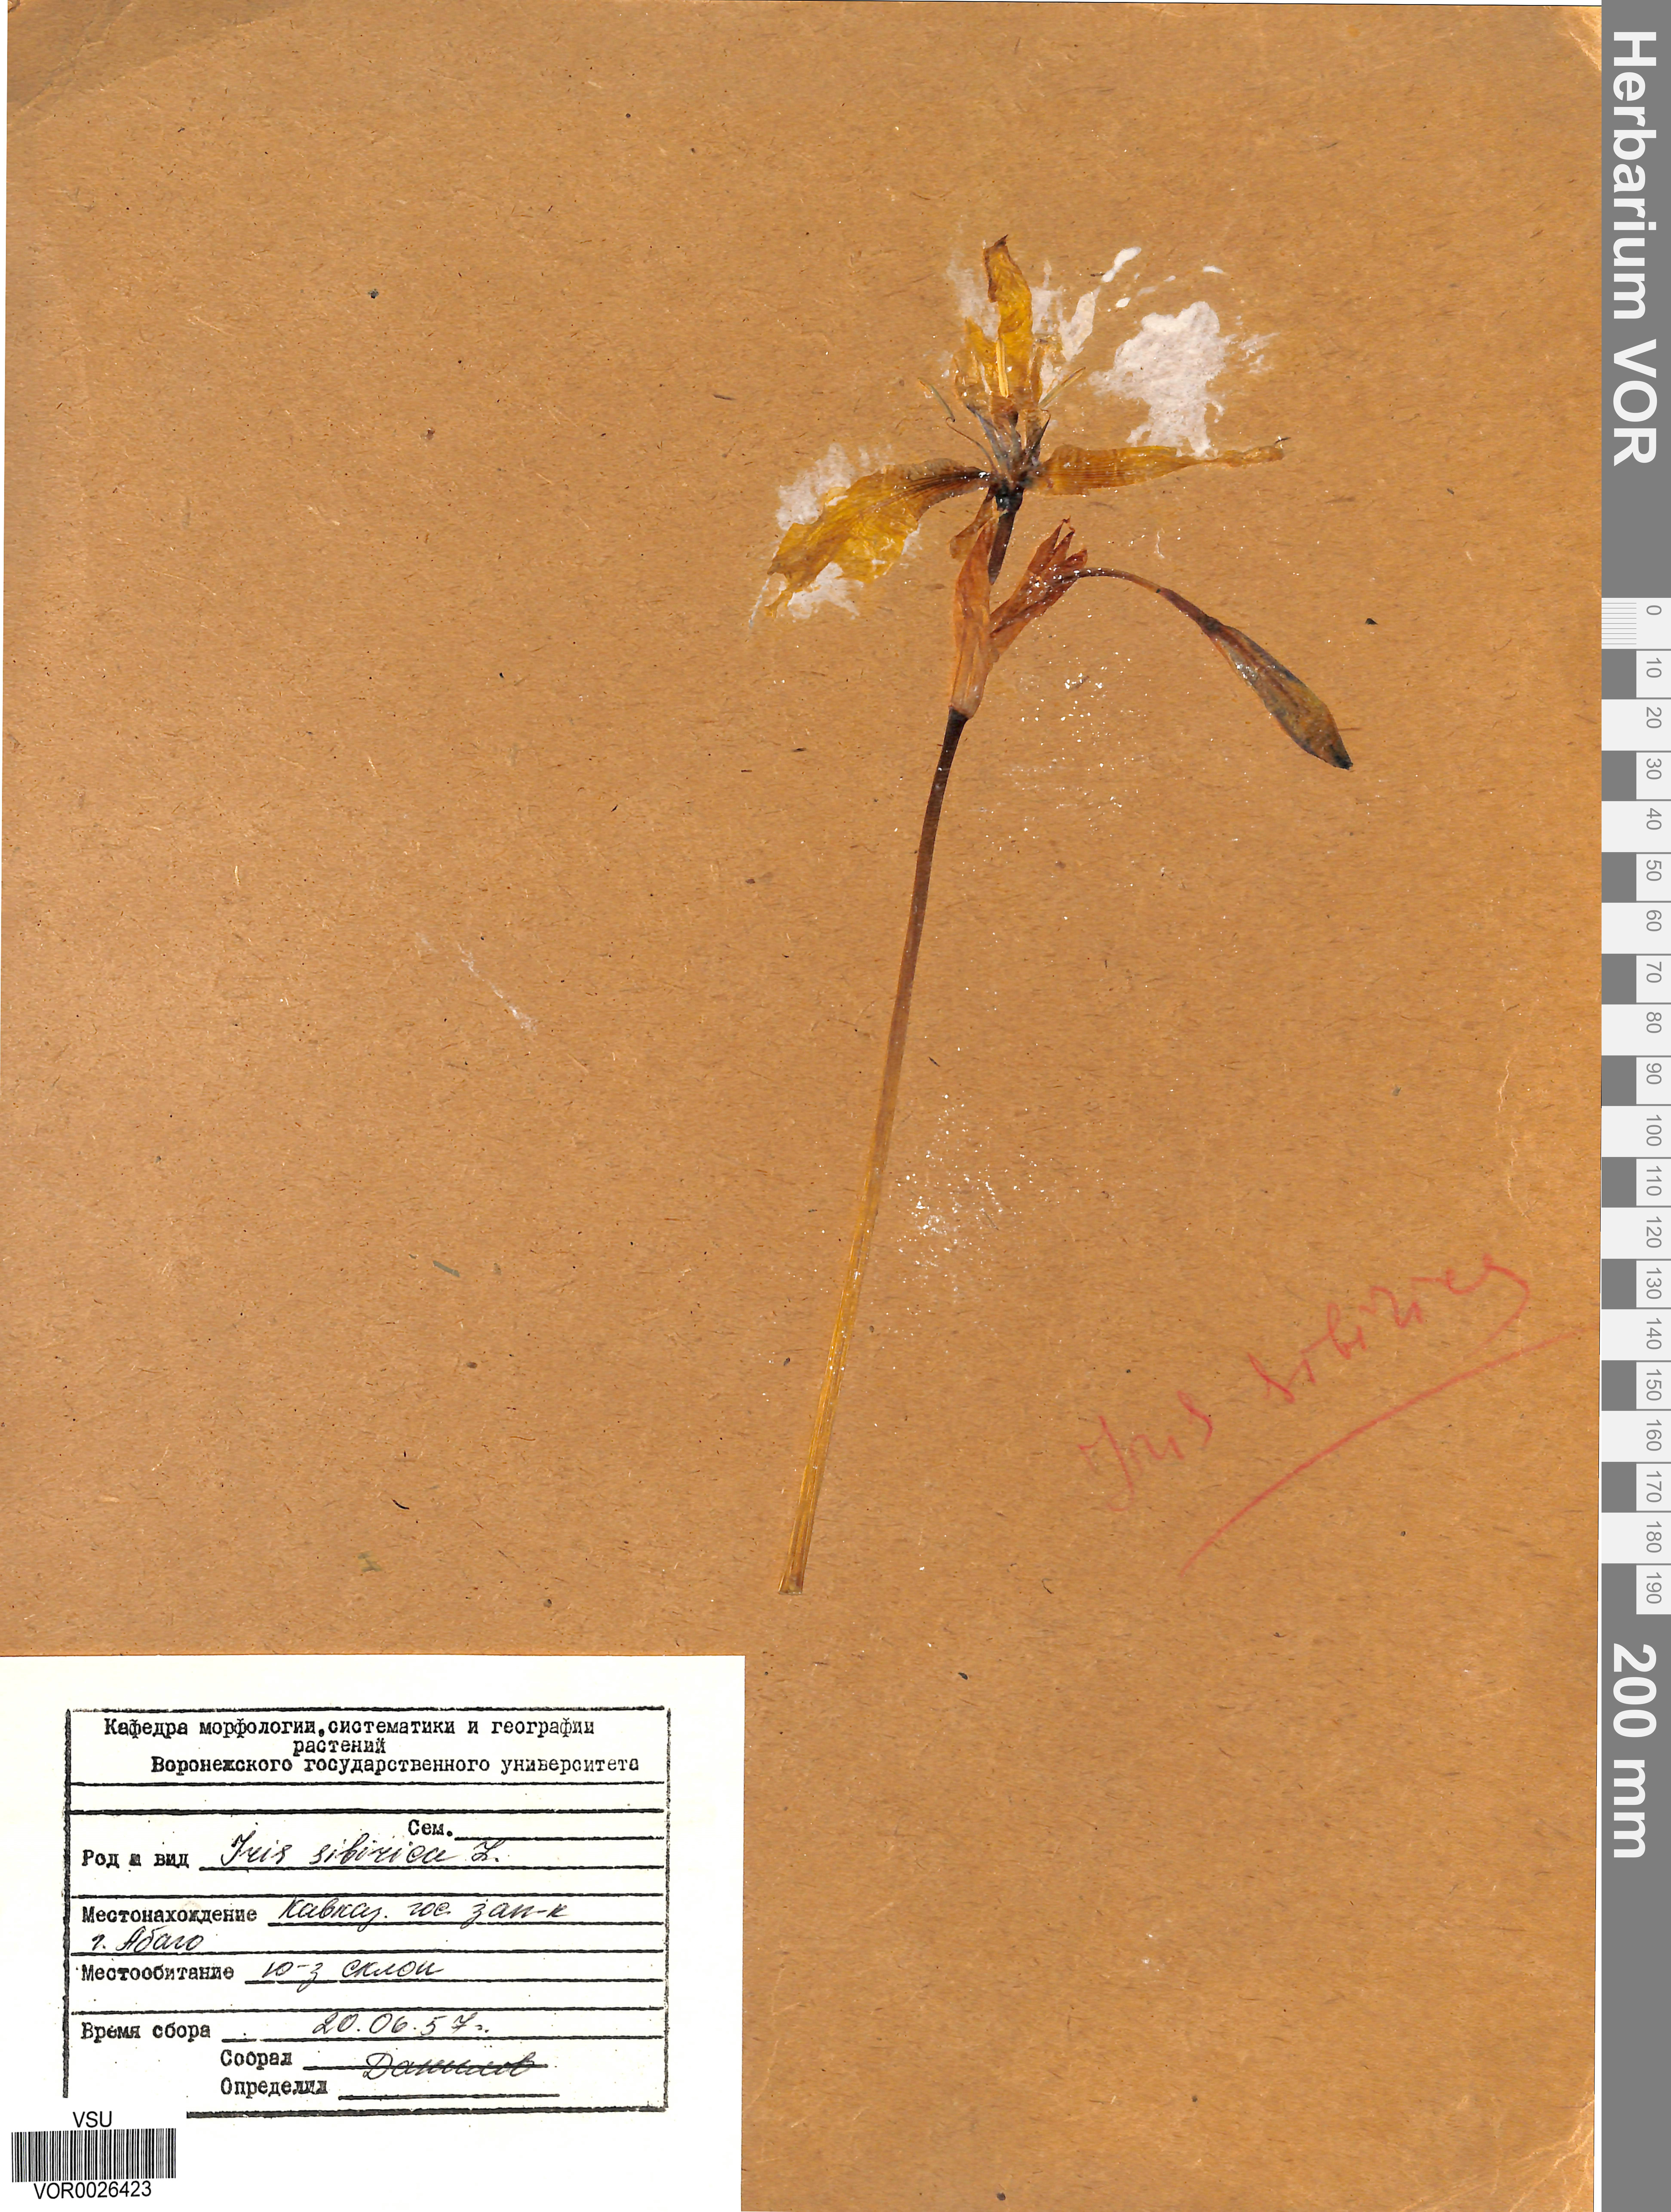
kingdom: Plantae
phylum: Tracheophyta
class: Liliopsida
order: Asparagales
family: Iridaceae
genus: Iris
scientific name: Iris sibirica
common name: Siberian iris
